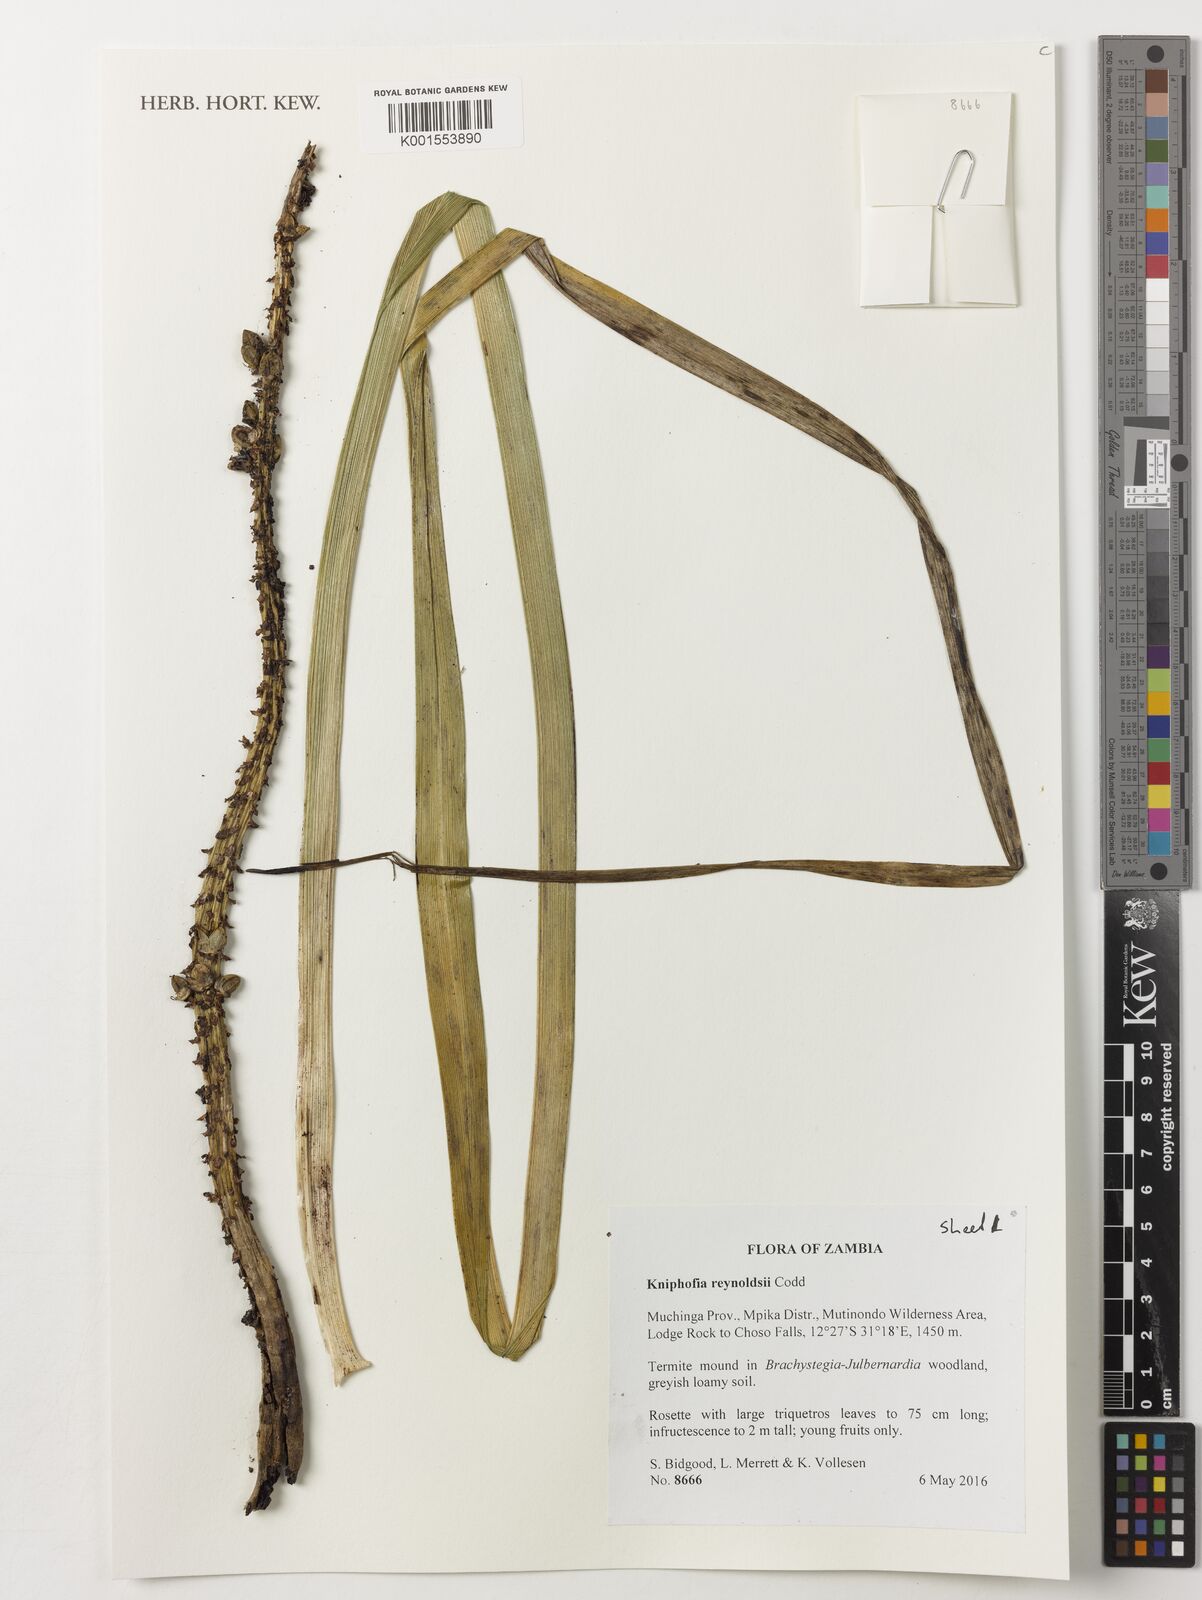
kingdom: Plantae
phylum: Tracheophyta
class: Liliopsida
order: Asparagales
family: Asphodelaceae
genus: Kniphofia
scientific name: Kniphofia reynoldsii
